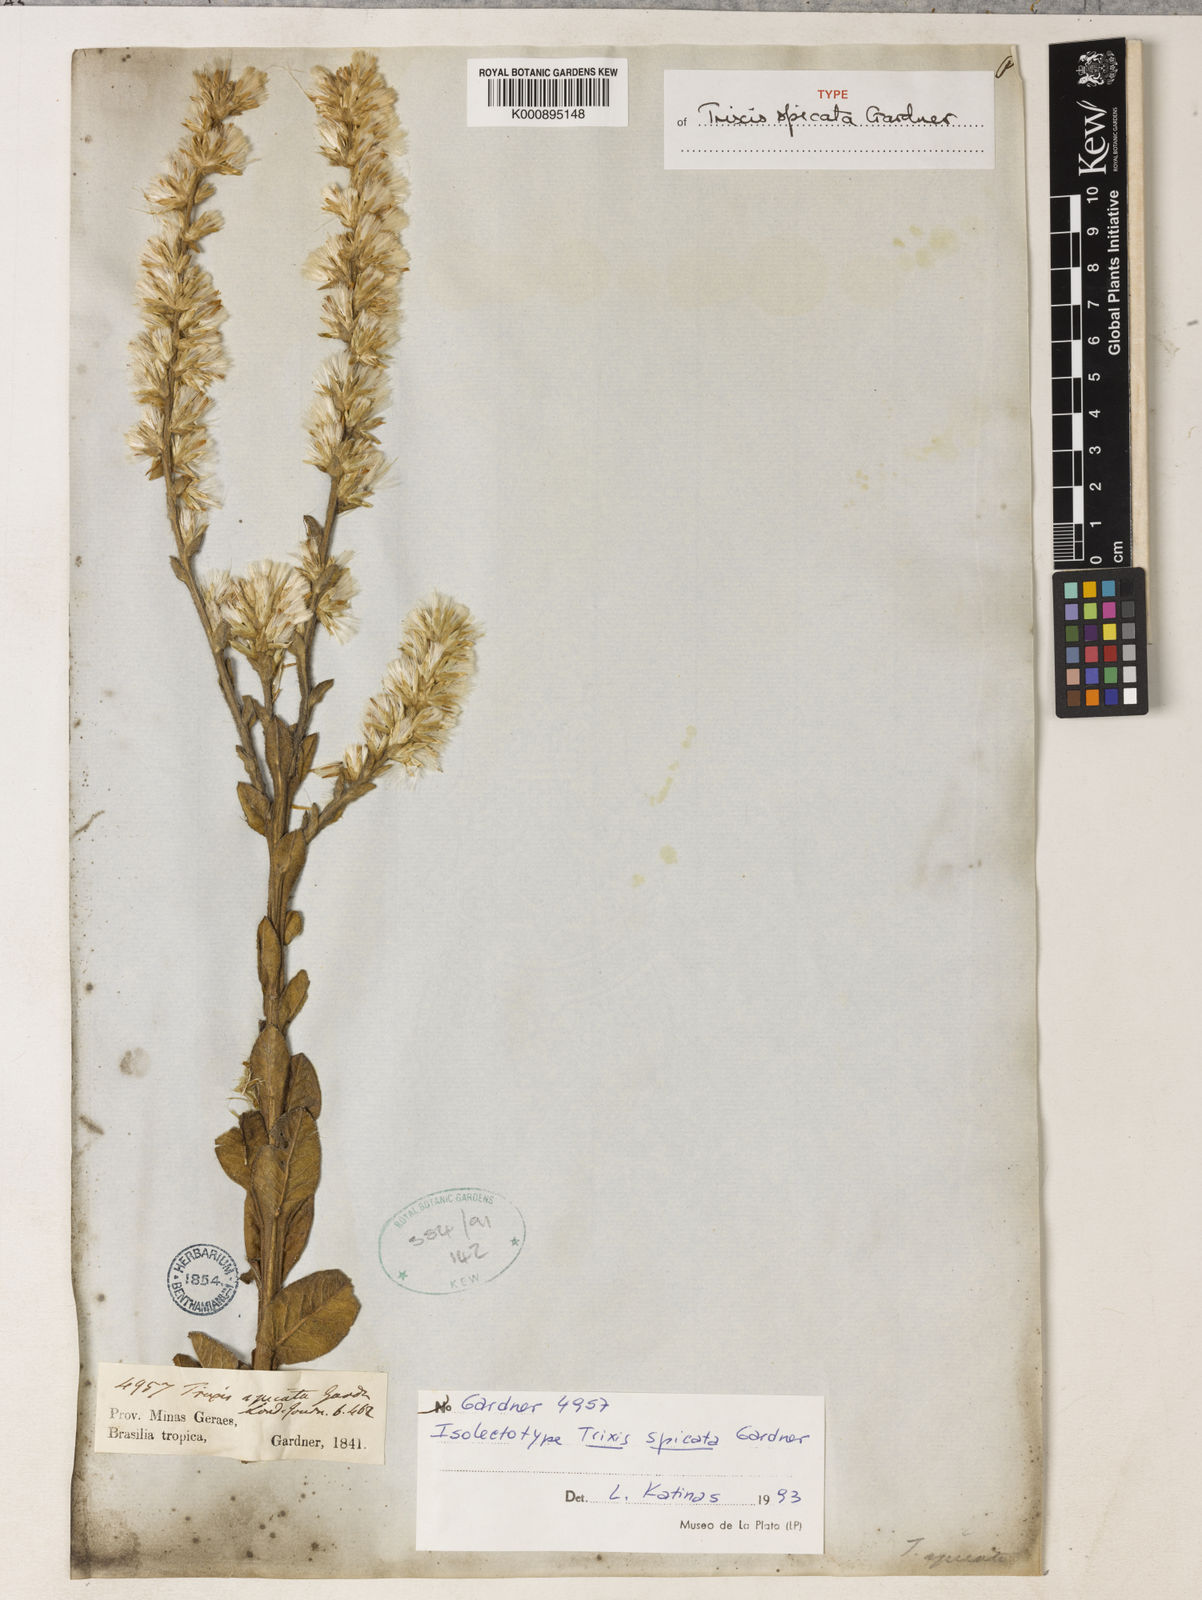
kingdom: Plantae
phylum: Tracheophyta
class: Magnoliopsida
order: Asterales
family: Asteraceae
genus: Trixis
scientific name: Trixis spicata
